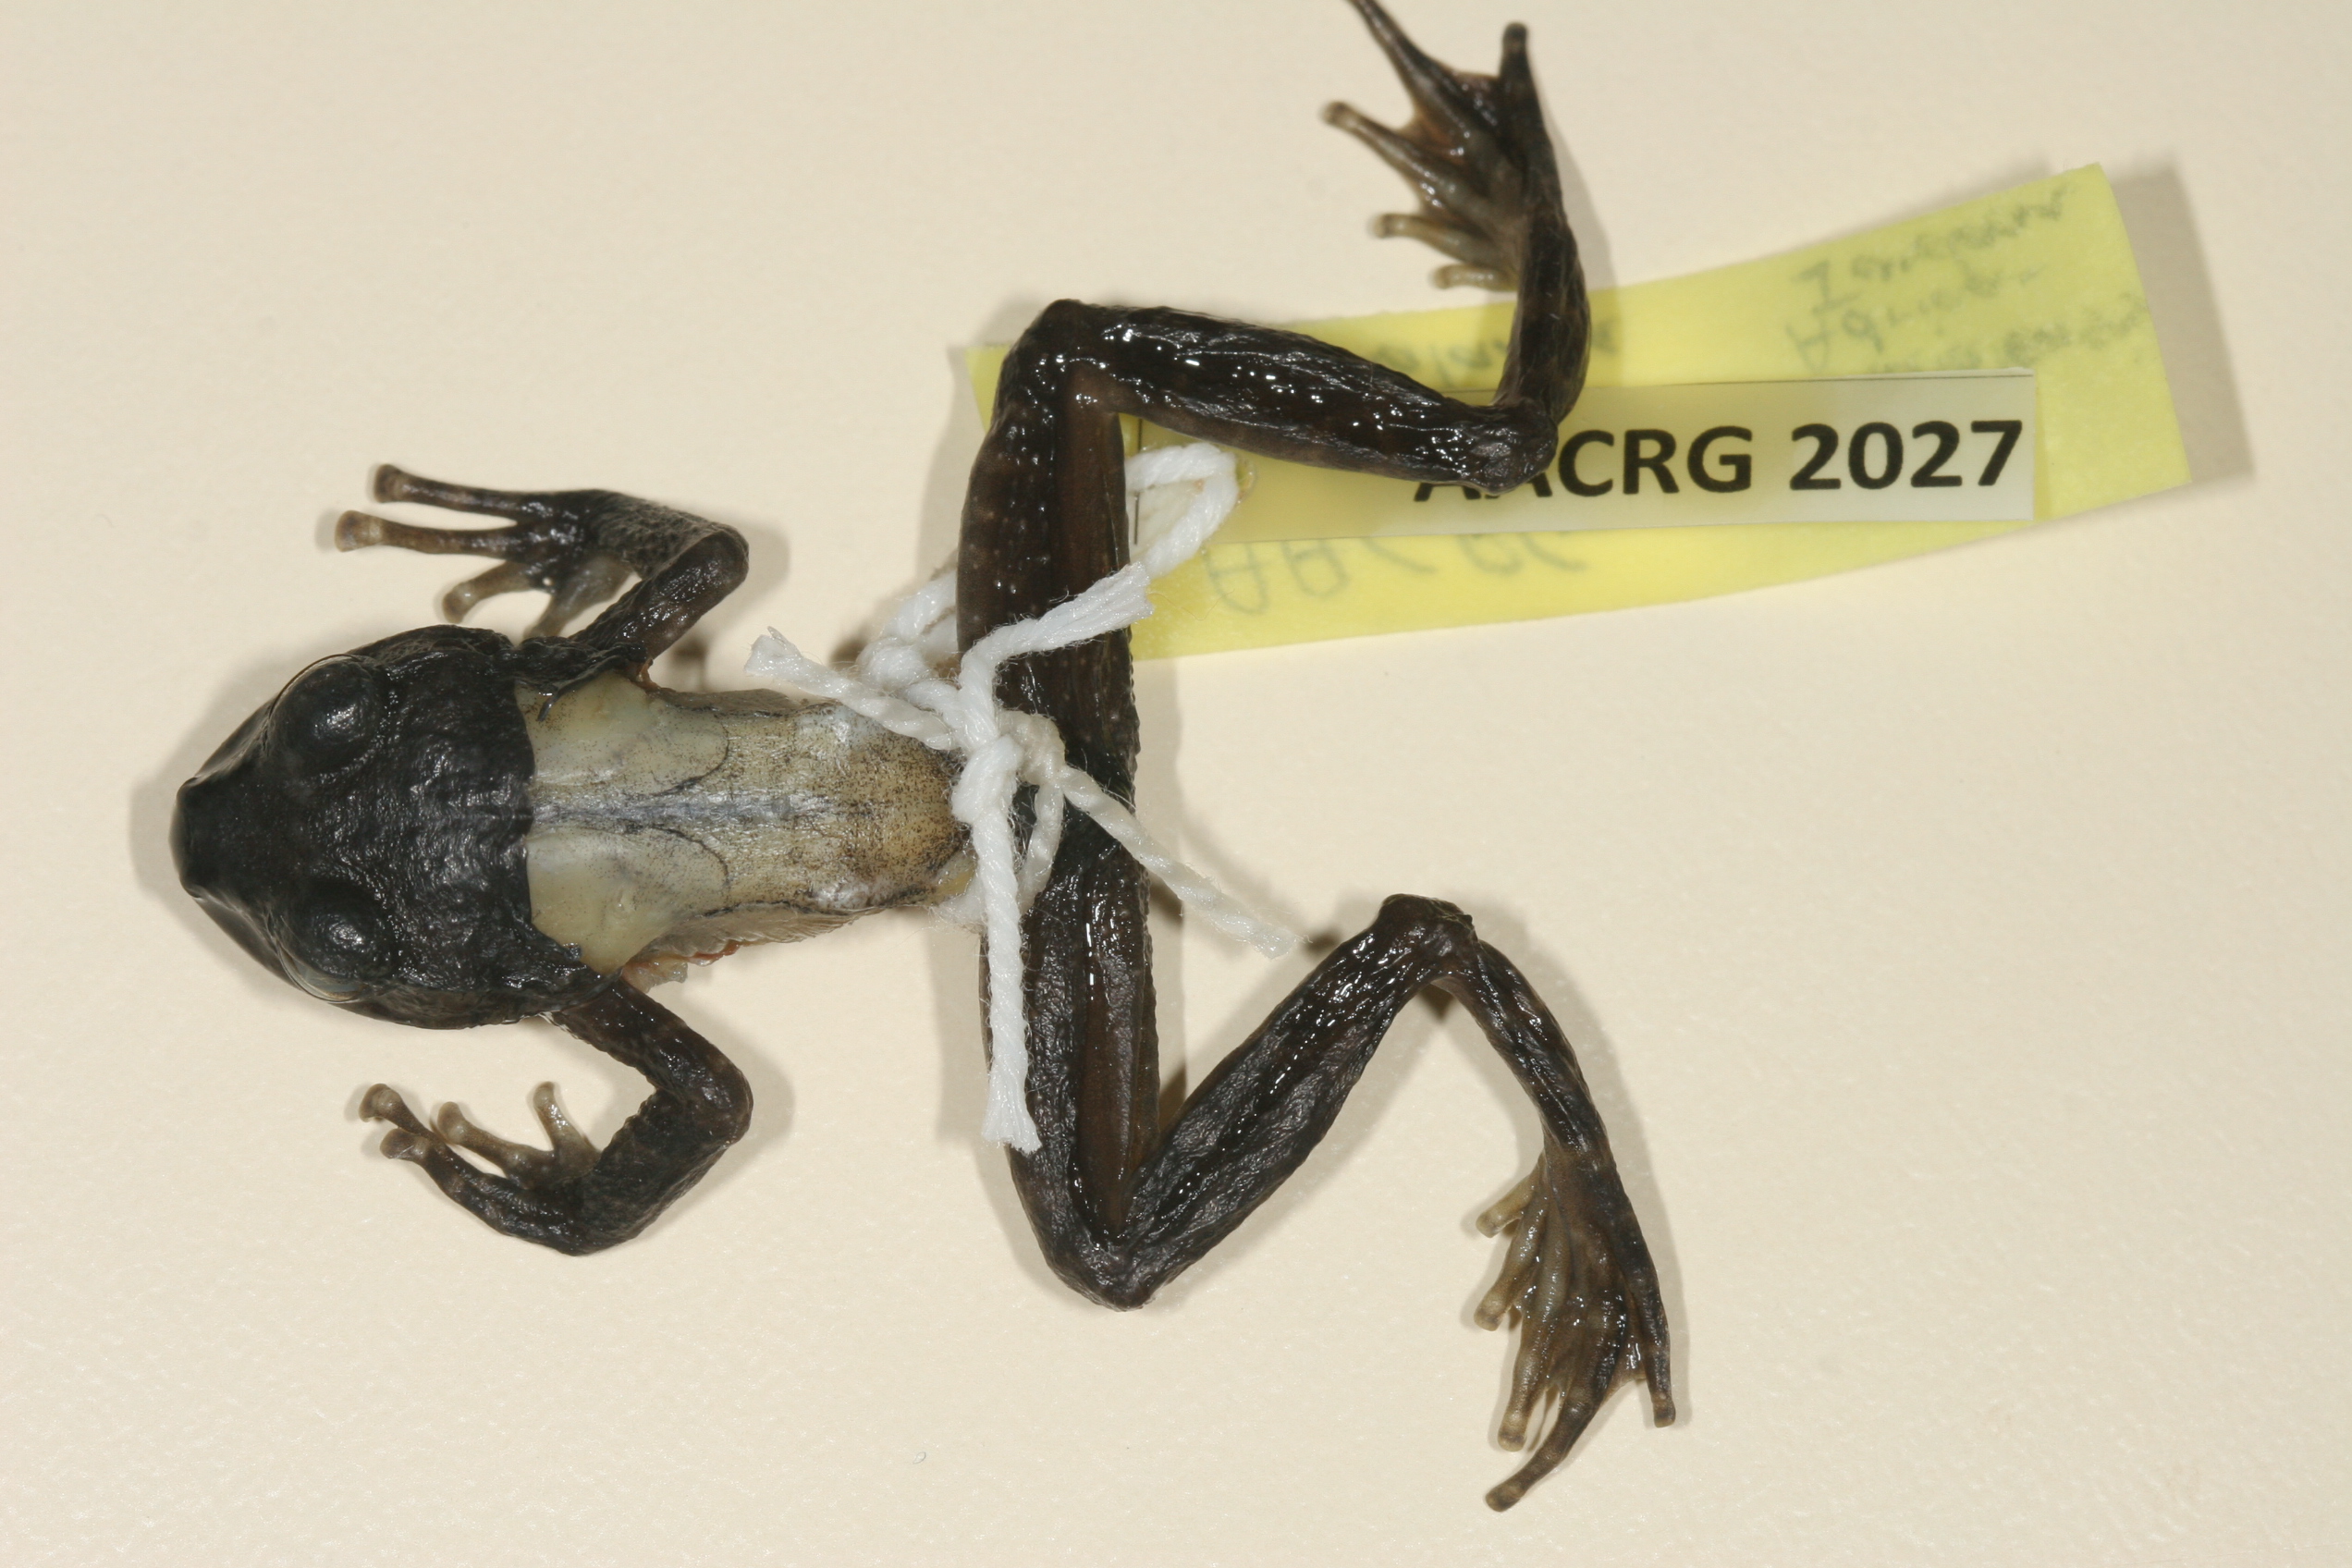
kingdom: Animalia
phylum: Chordata
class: Amphibia
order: Anura
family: Heleophrynidae
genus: Hadromophryne
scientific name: Hadromophryne natalensis
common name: Natal ghost frog
